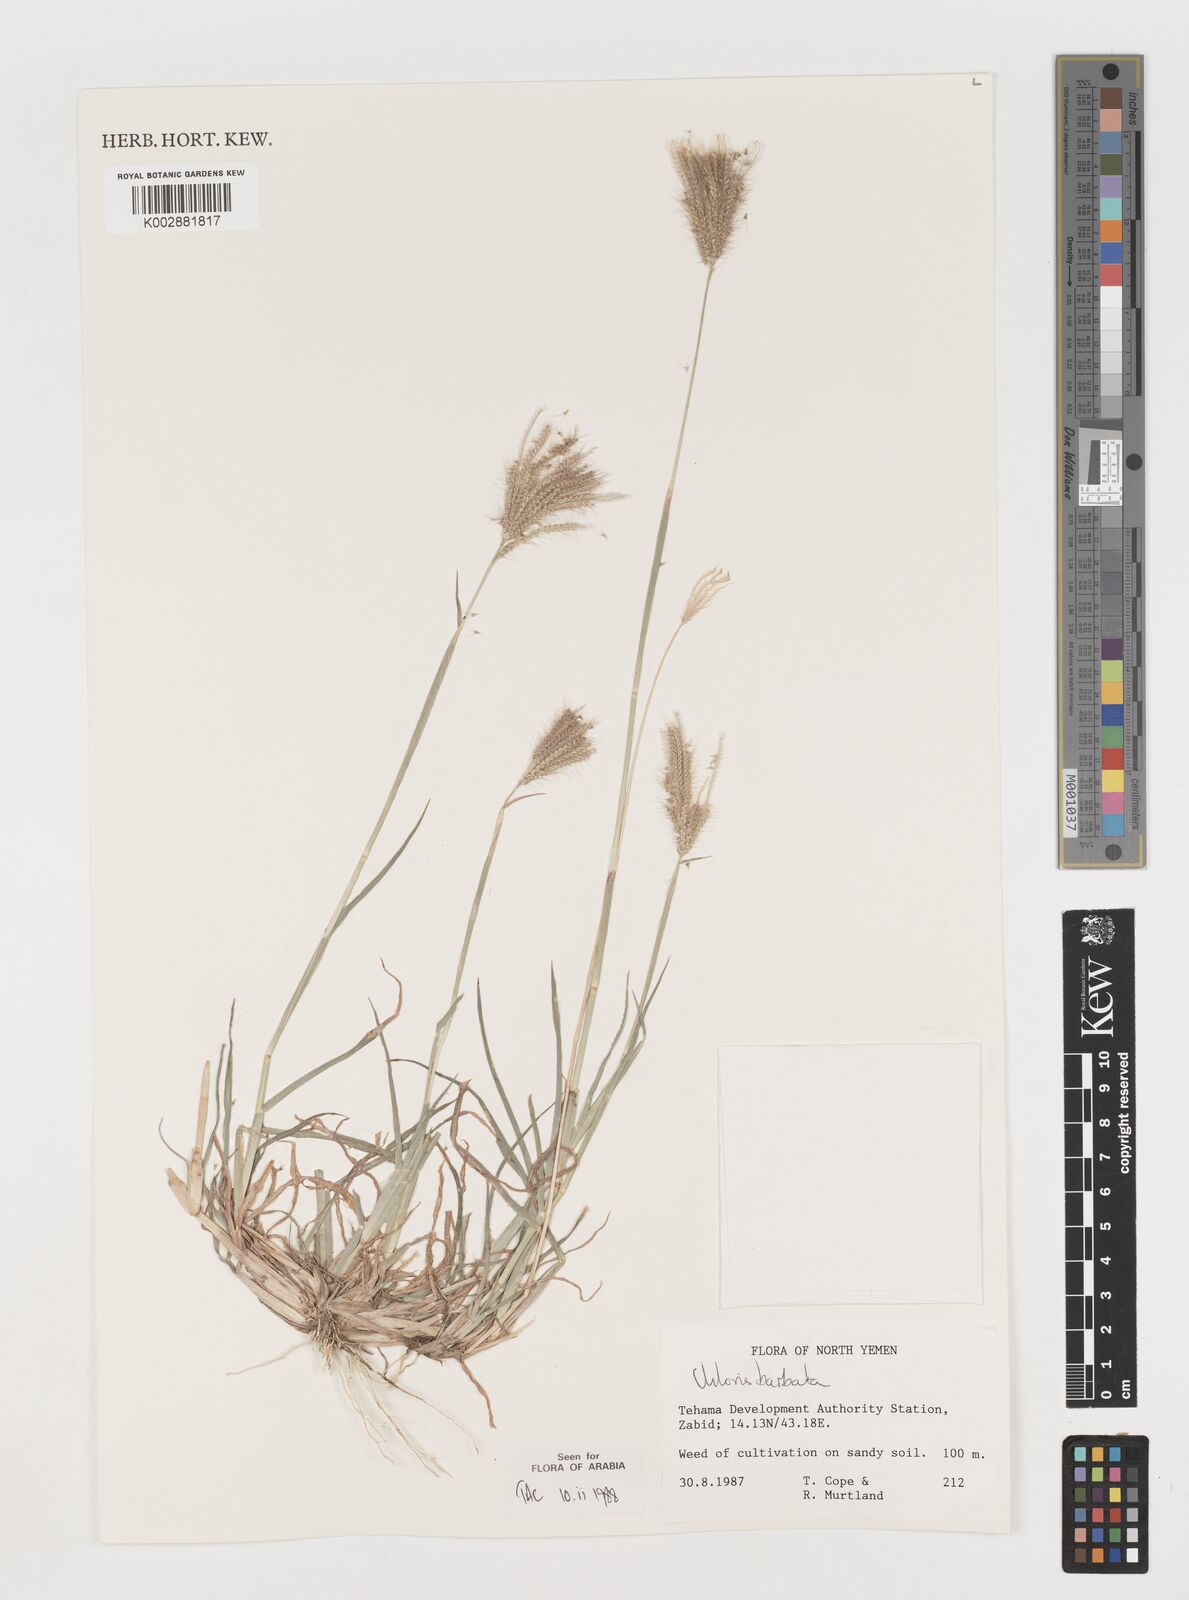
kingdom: Plantae
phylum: Tracheophyta
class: Liliopsida
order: Poales
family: Poaceae
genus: Chloris
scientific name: Chloris barbata
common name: Swollen fingergrass
